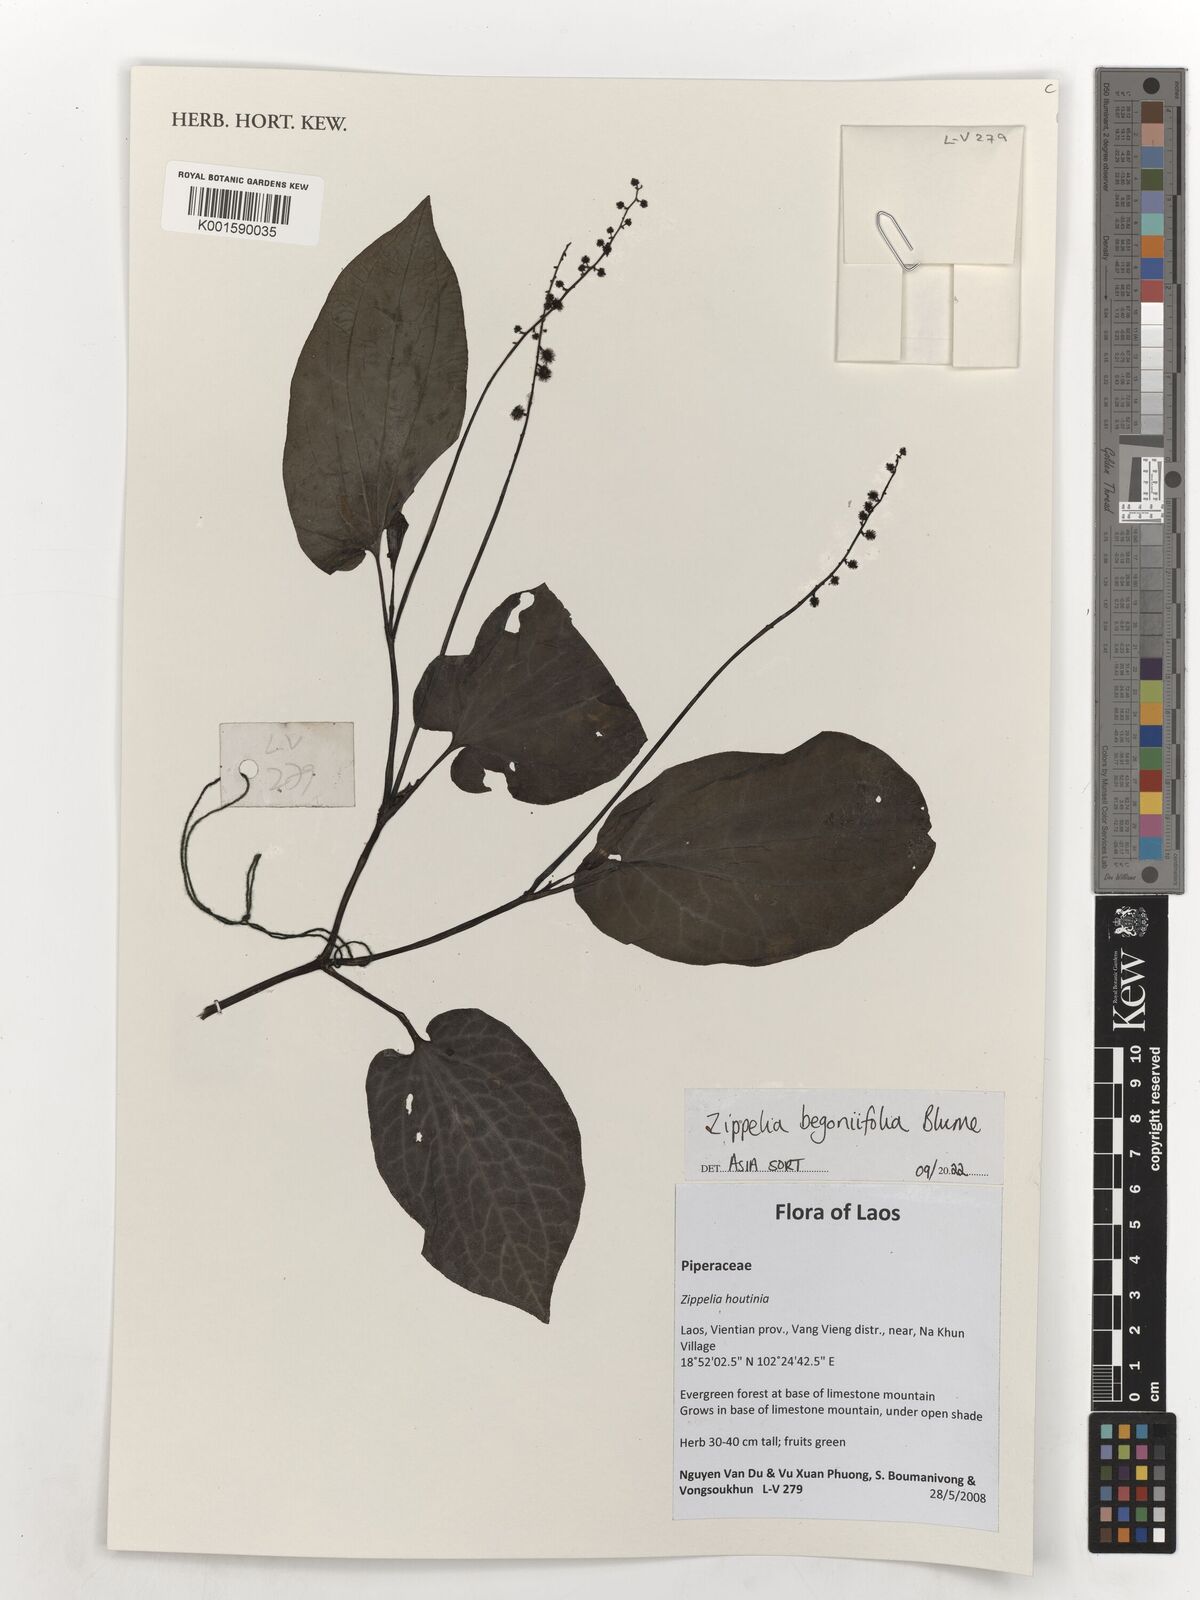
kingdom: Plantae
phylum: Tracheophyta
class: Magnoliopsida
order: Piperales
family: Piperaceae
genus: Zippelia
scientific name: Zippelia begoniifolia
